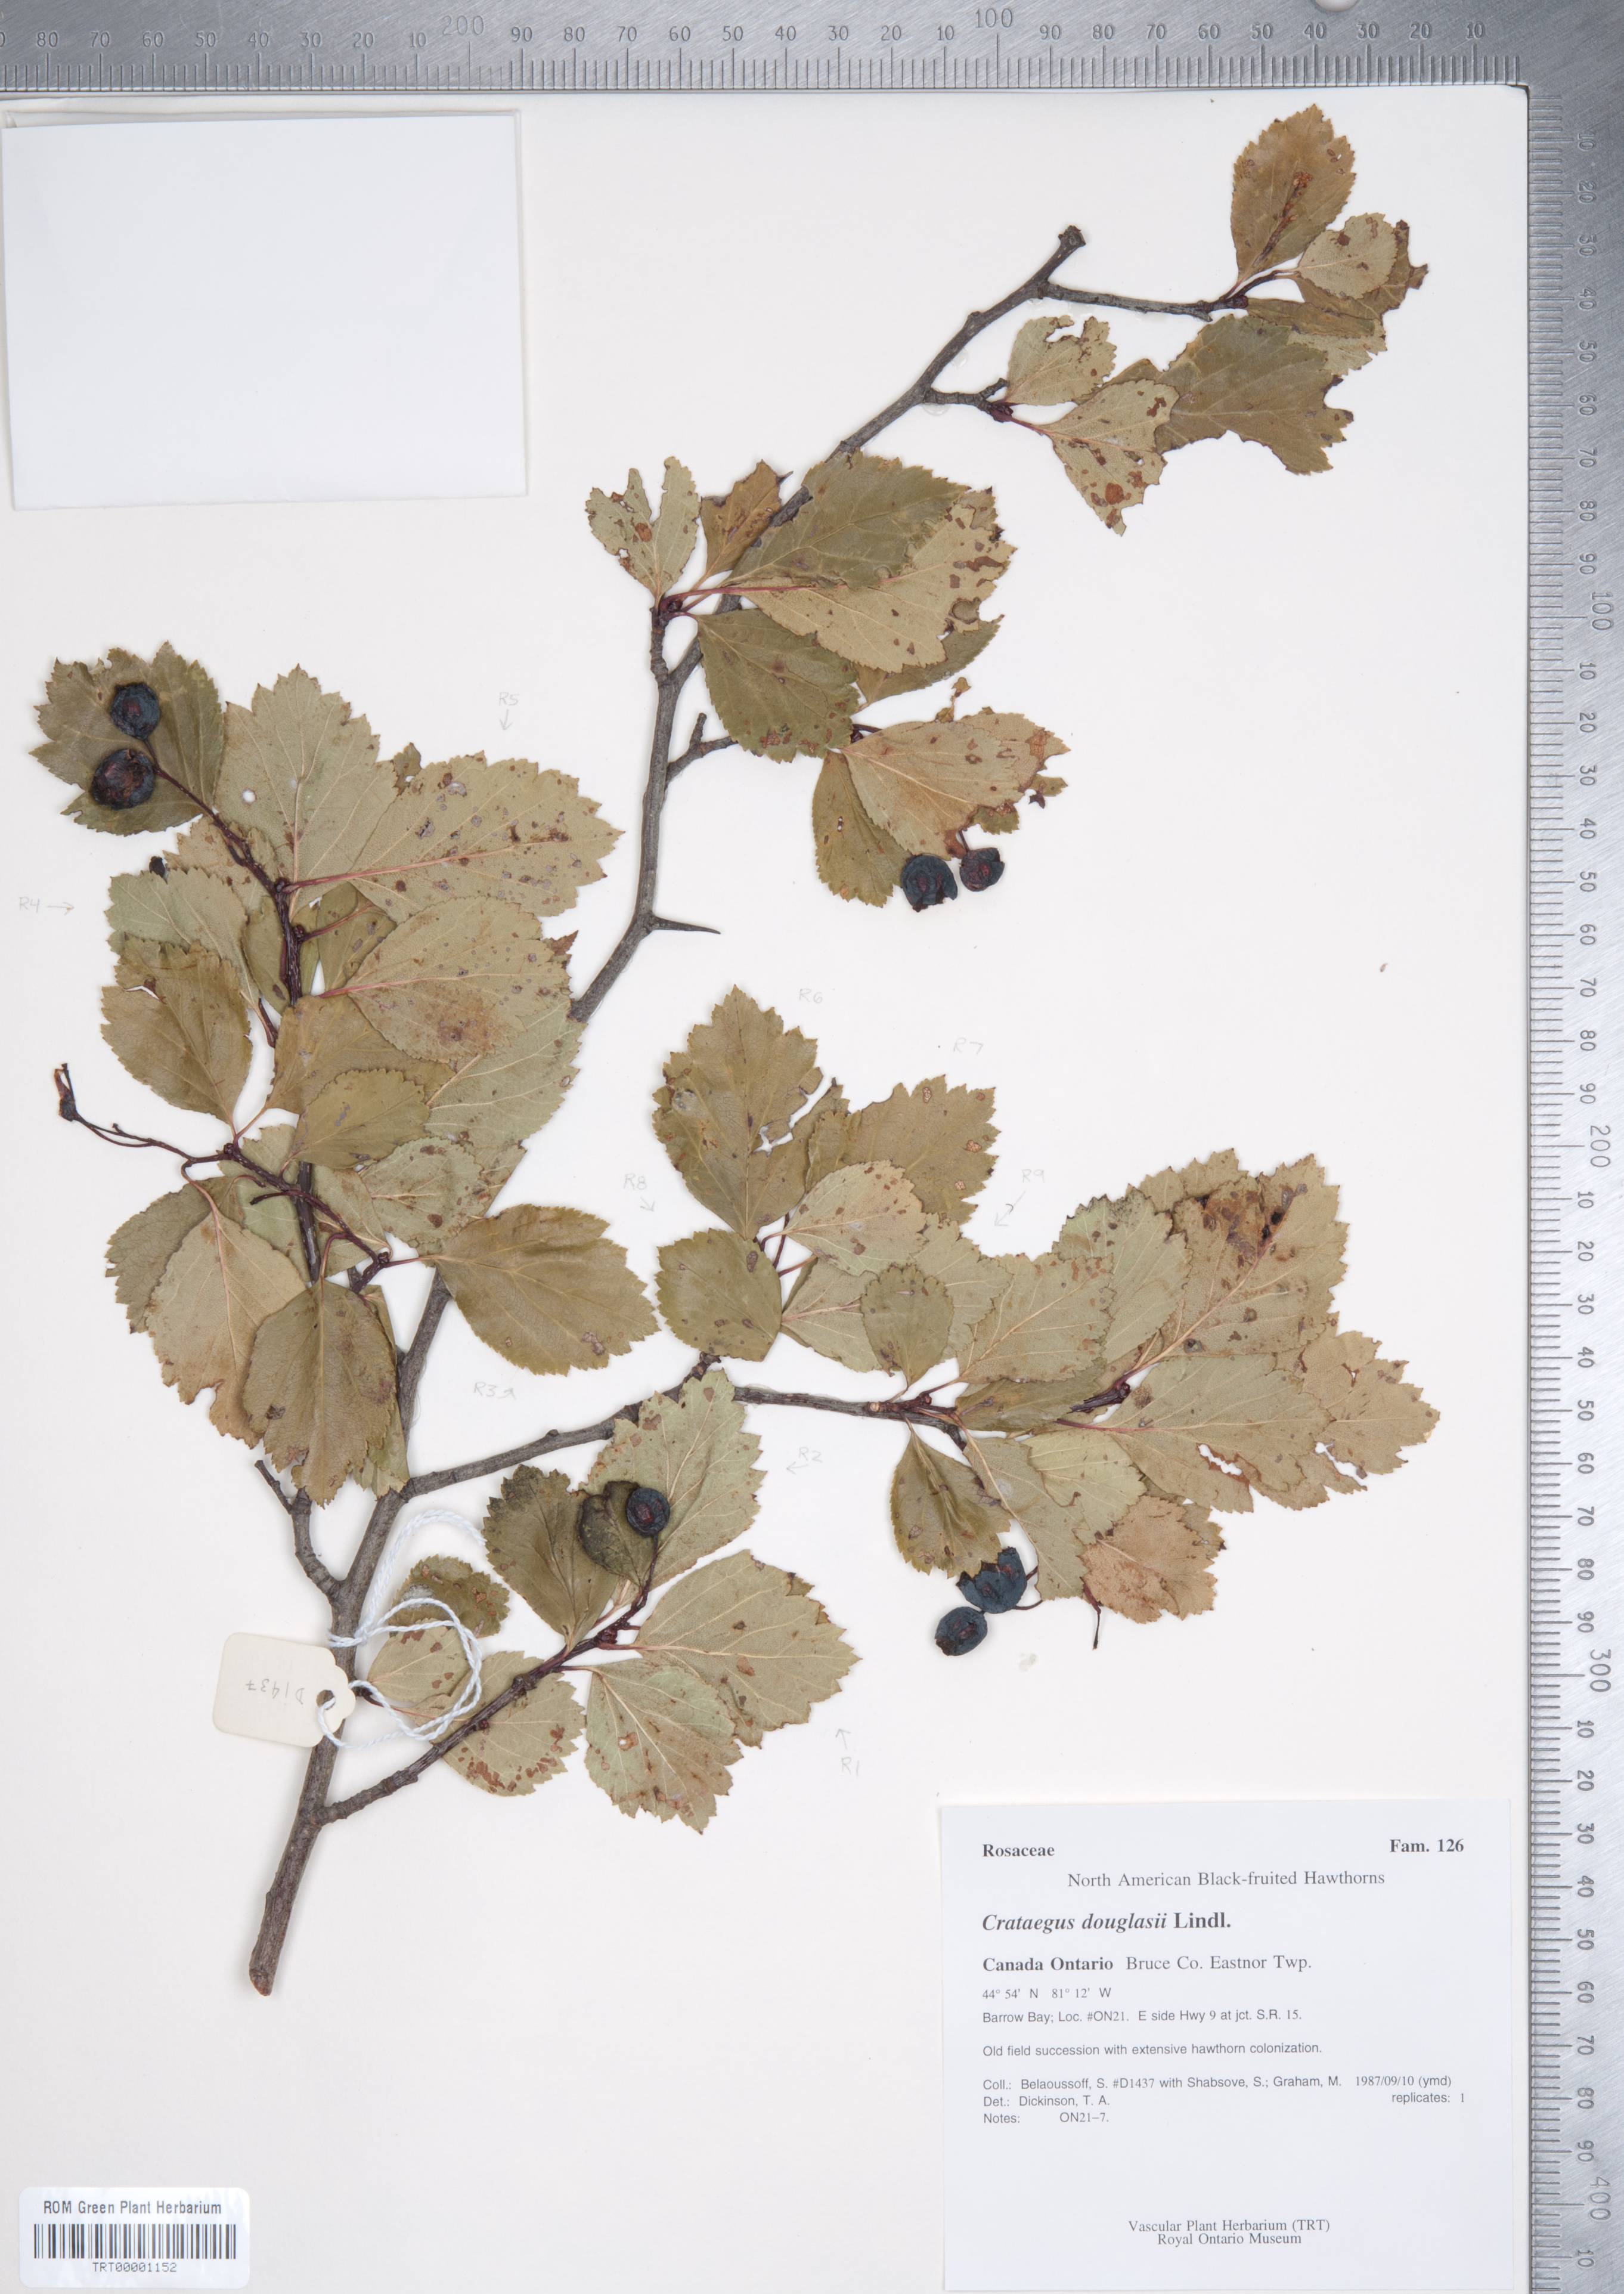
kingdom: Plantae
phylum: Tracheophyta
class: Magnoliopsida
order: Rosales
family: Rosaceae
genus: Crataegus
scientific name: Crataegus douglasii
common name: Black hawthorn
